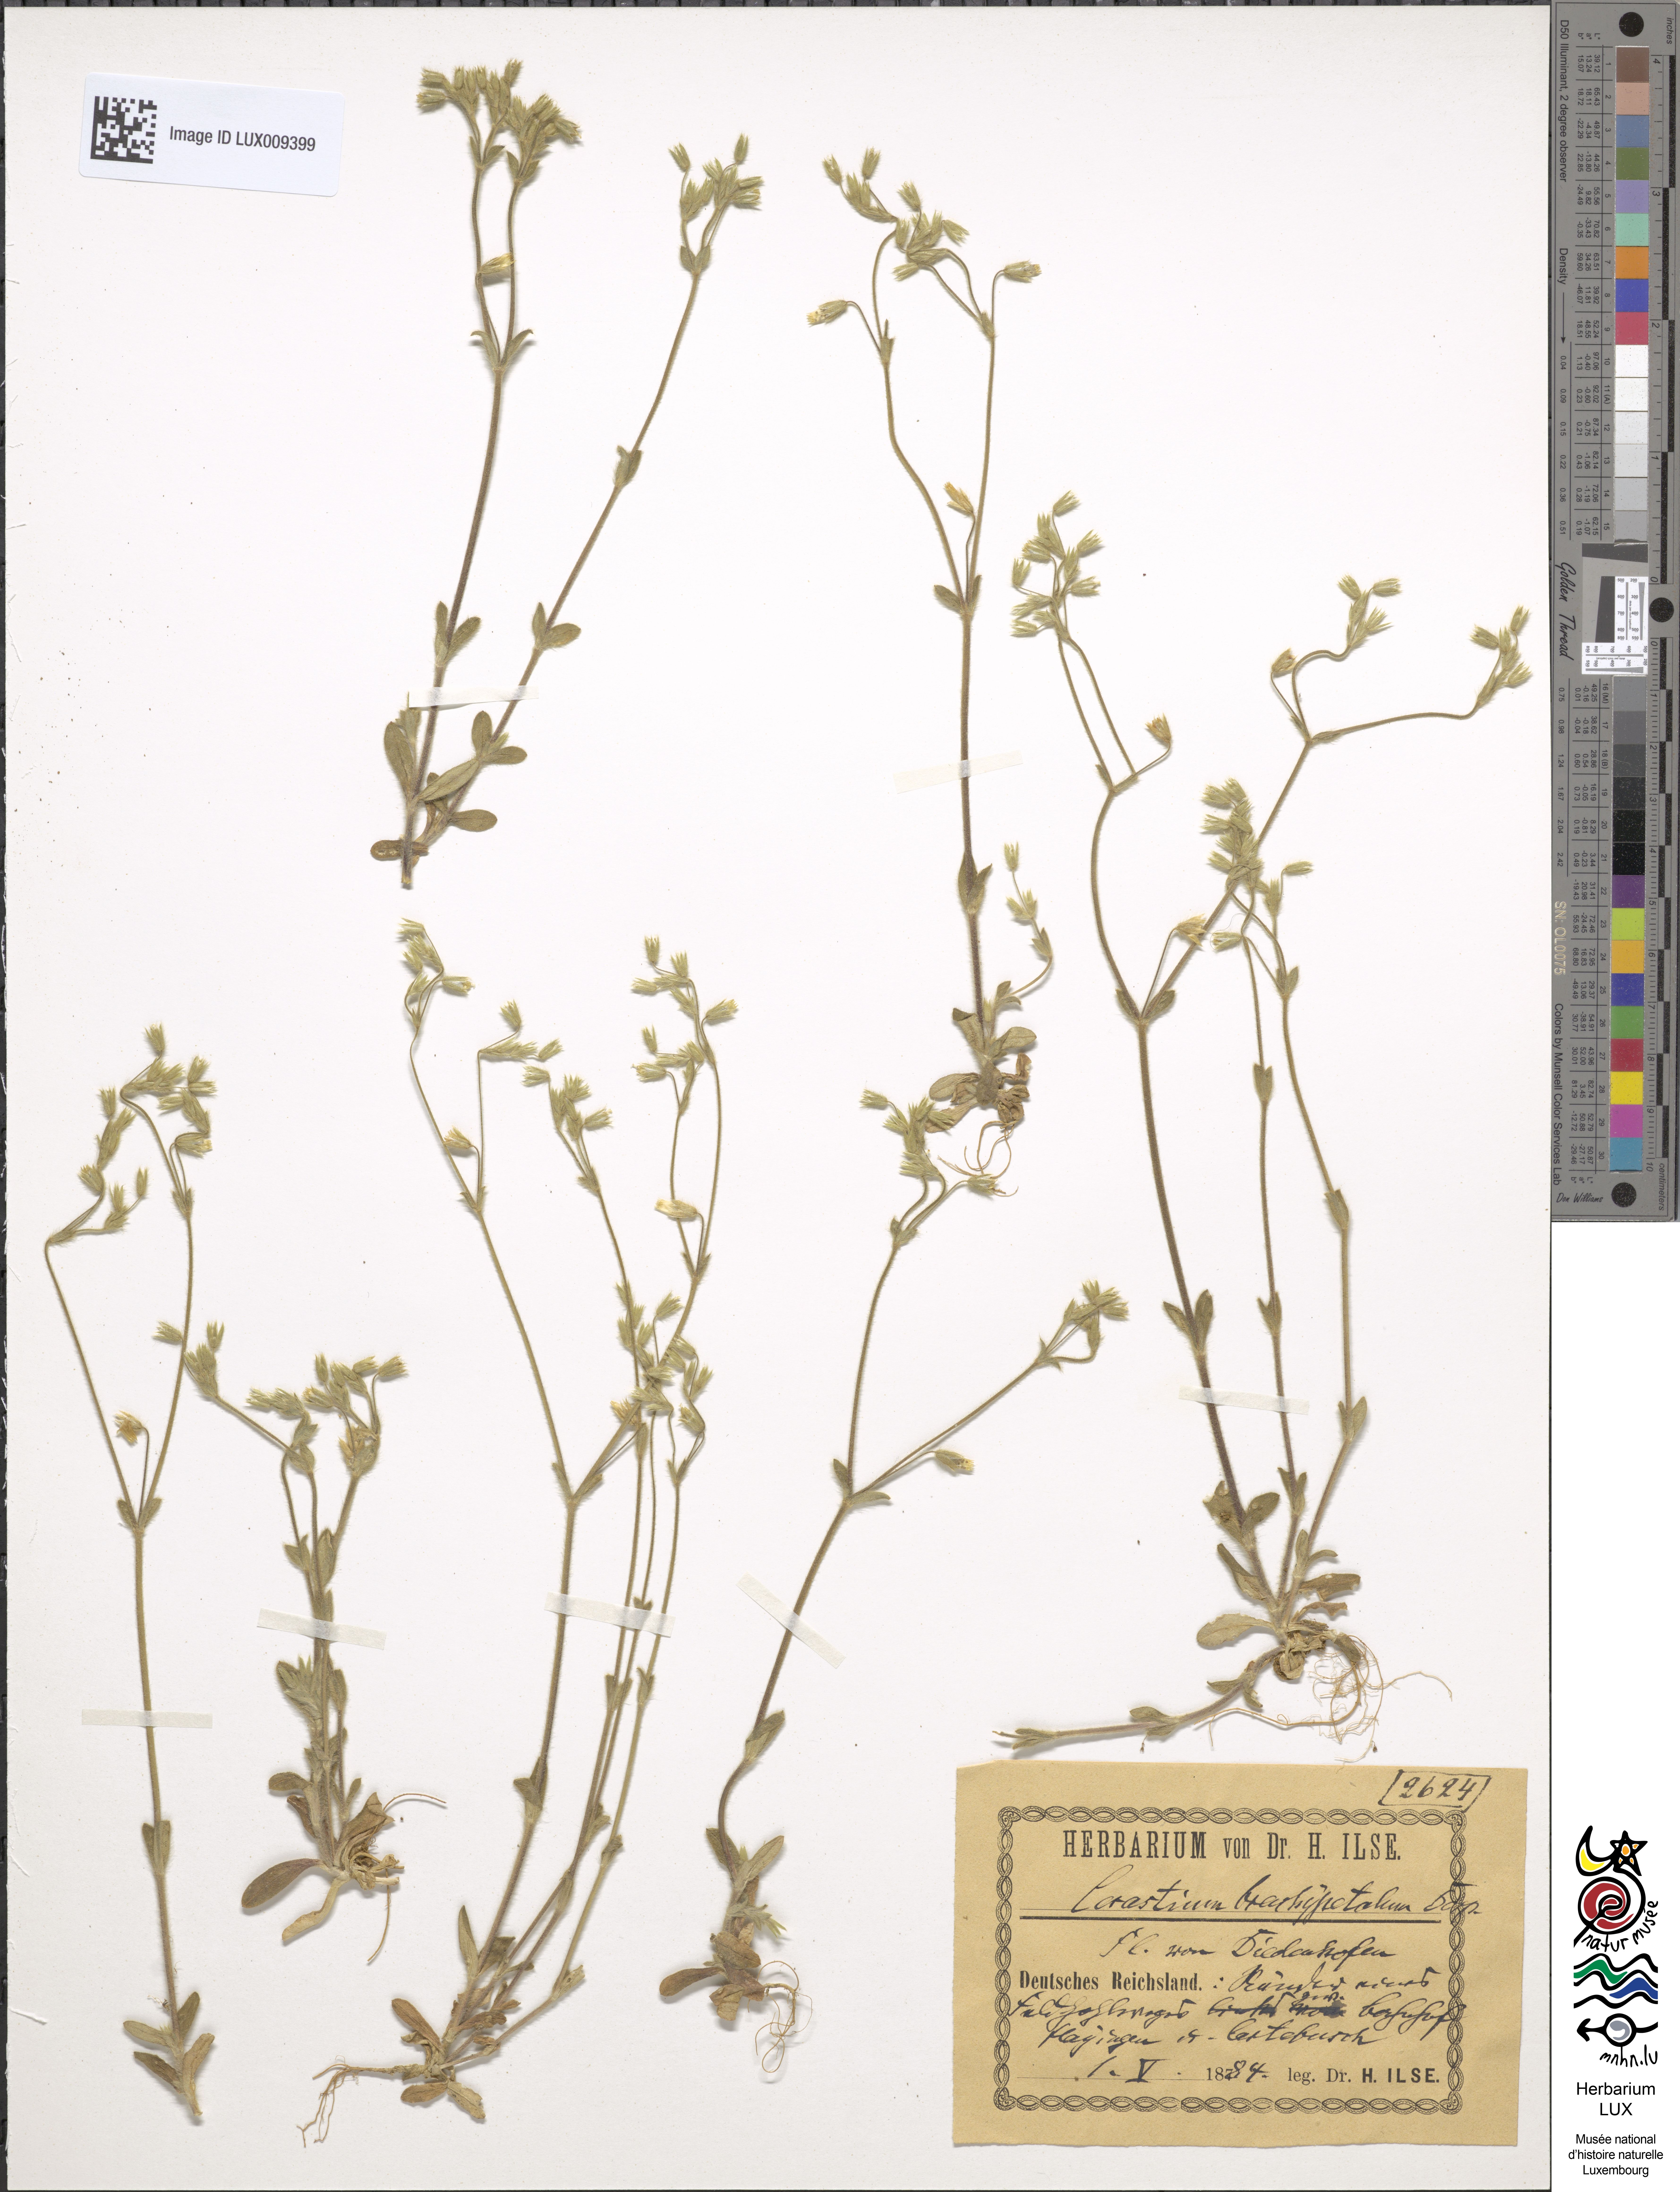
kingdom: Plantae
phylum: Tracheophyta
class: Magnoliopsida
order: Caryophyllales
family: Caryophyllaceae
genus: Cerastium
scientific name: Cerastium brachypetalum
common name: Grey mouse-ear
